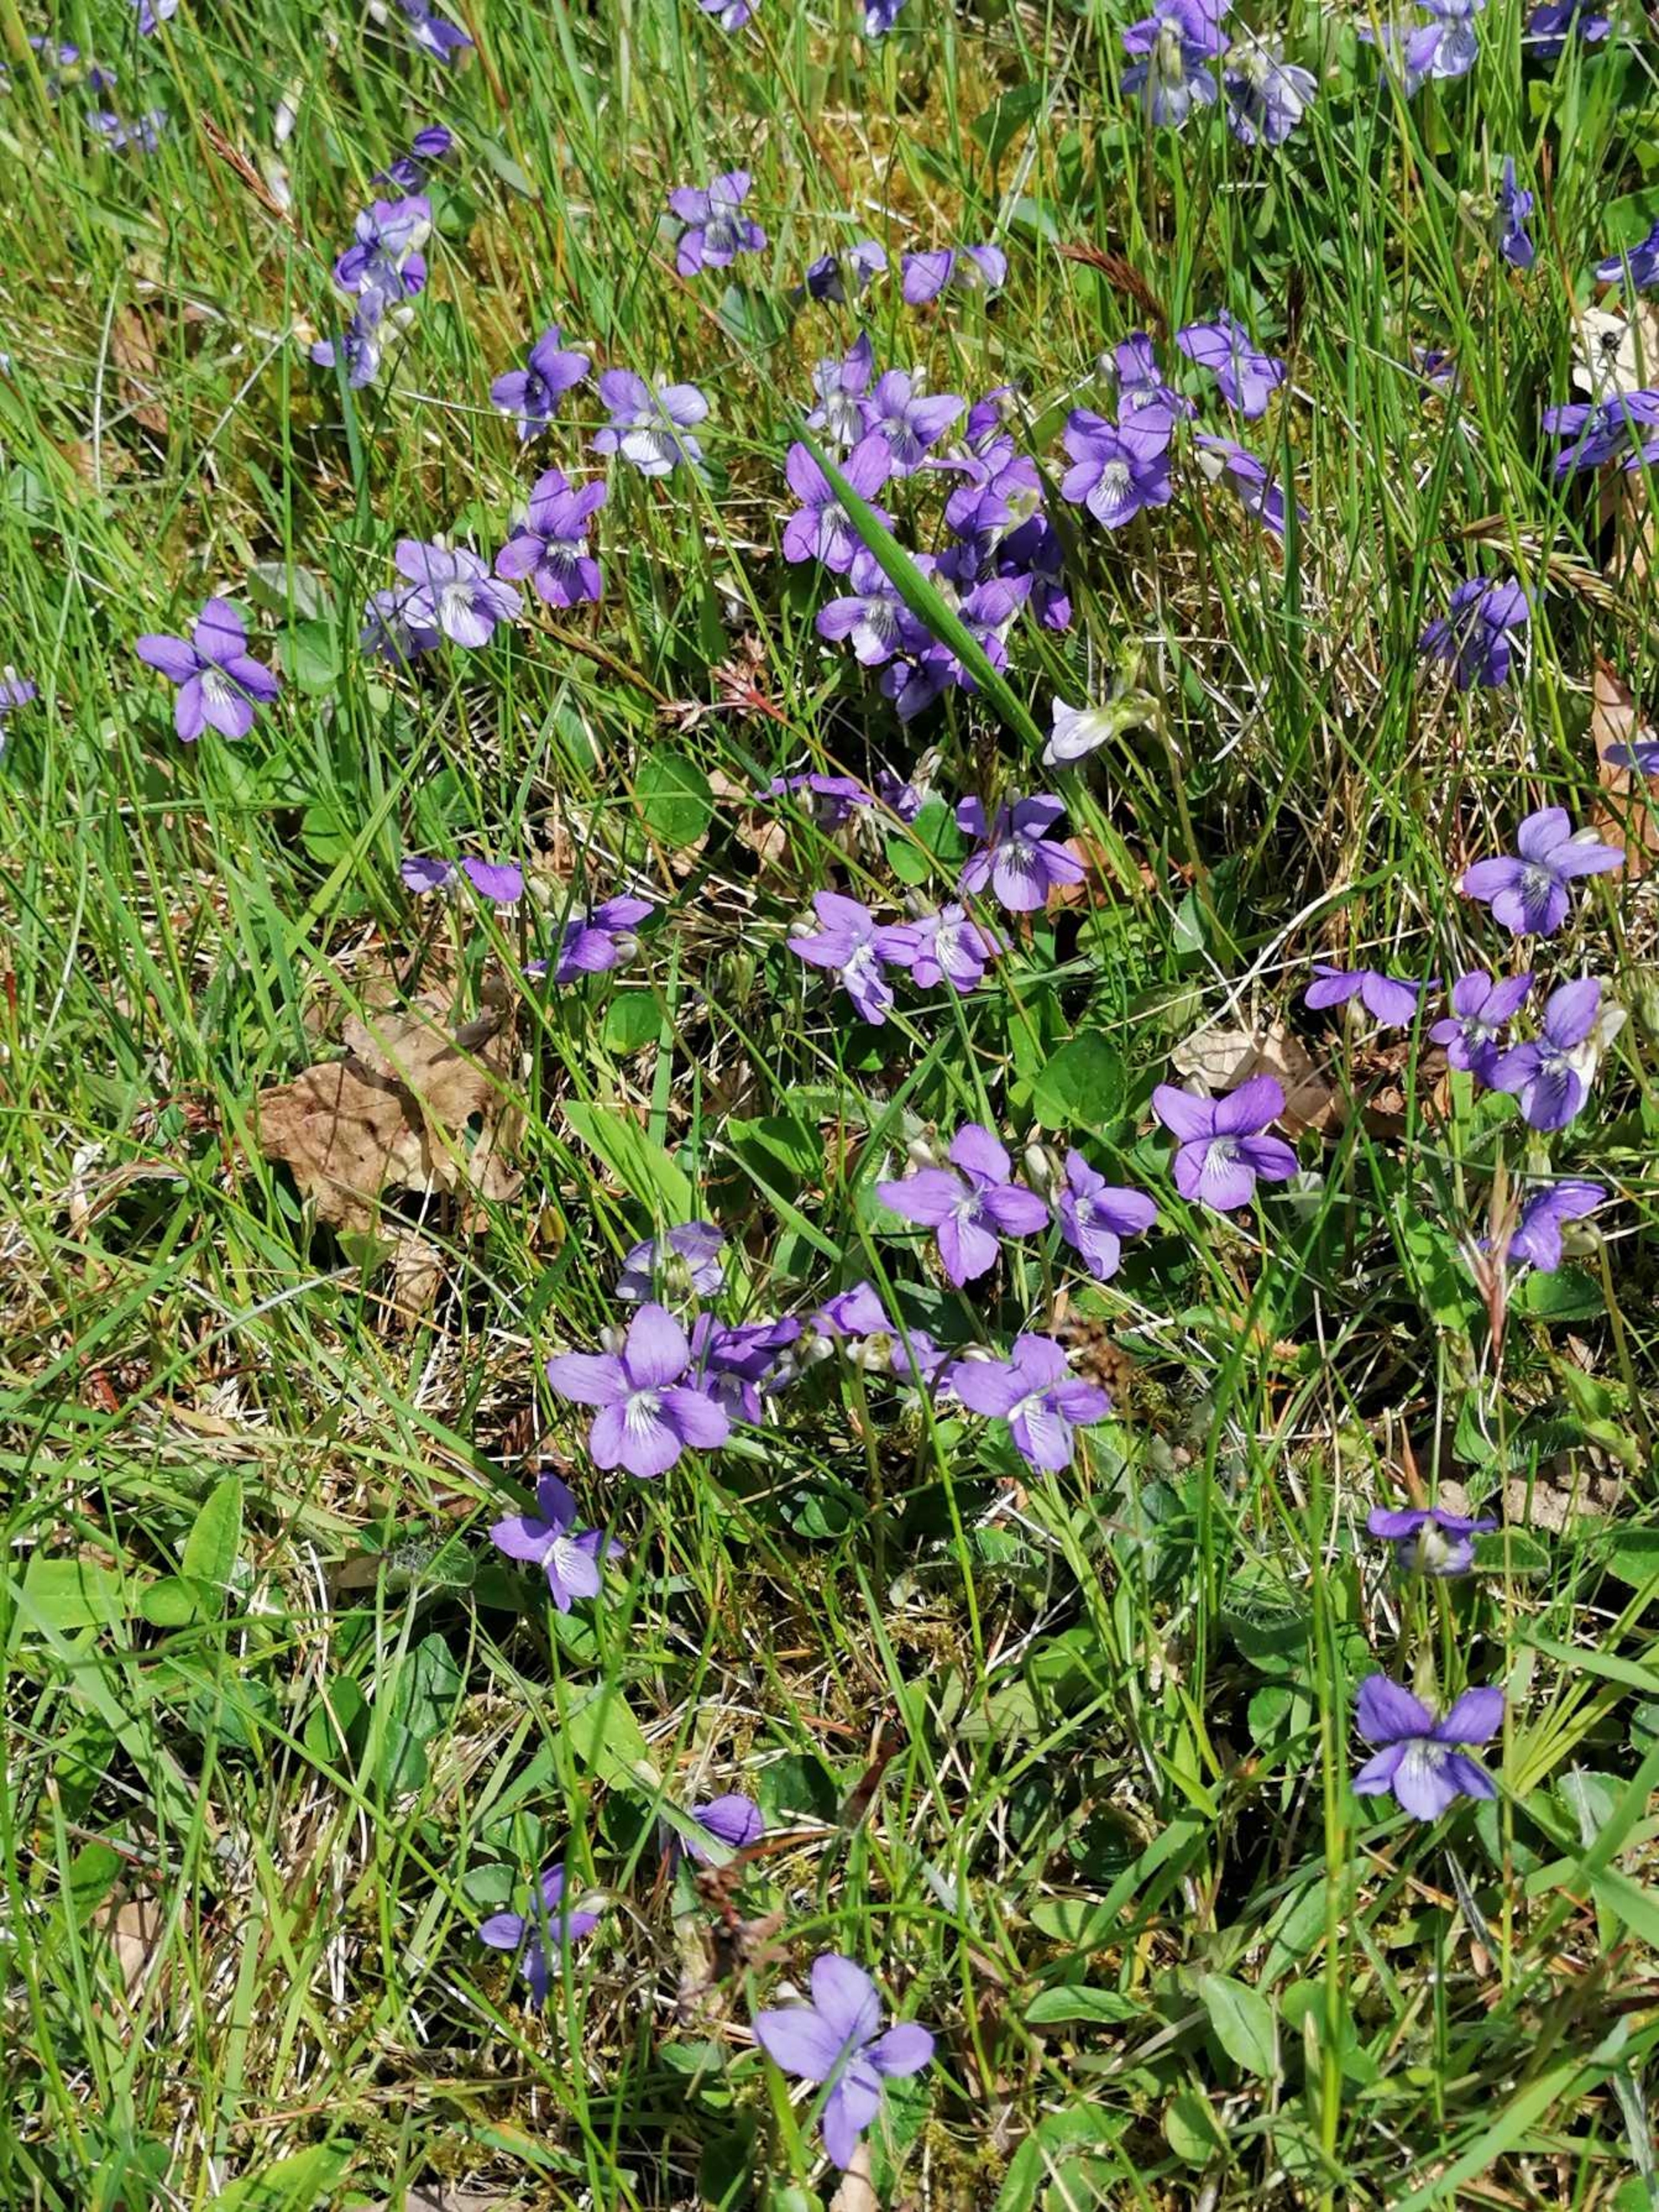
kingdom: Plantae
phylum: Tracheophyta
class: Magnoliopsida
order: Malpighiales
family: Violaceae
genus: Viola
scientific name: Viola riviniana
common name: Krat-viol
